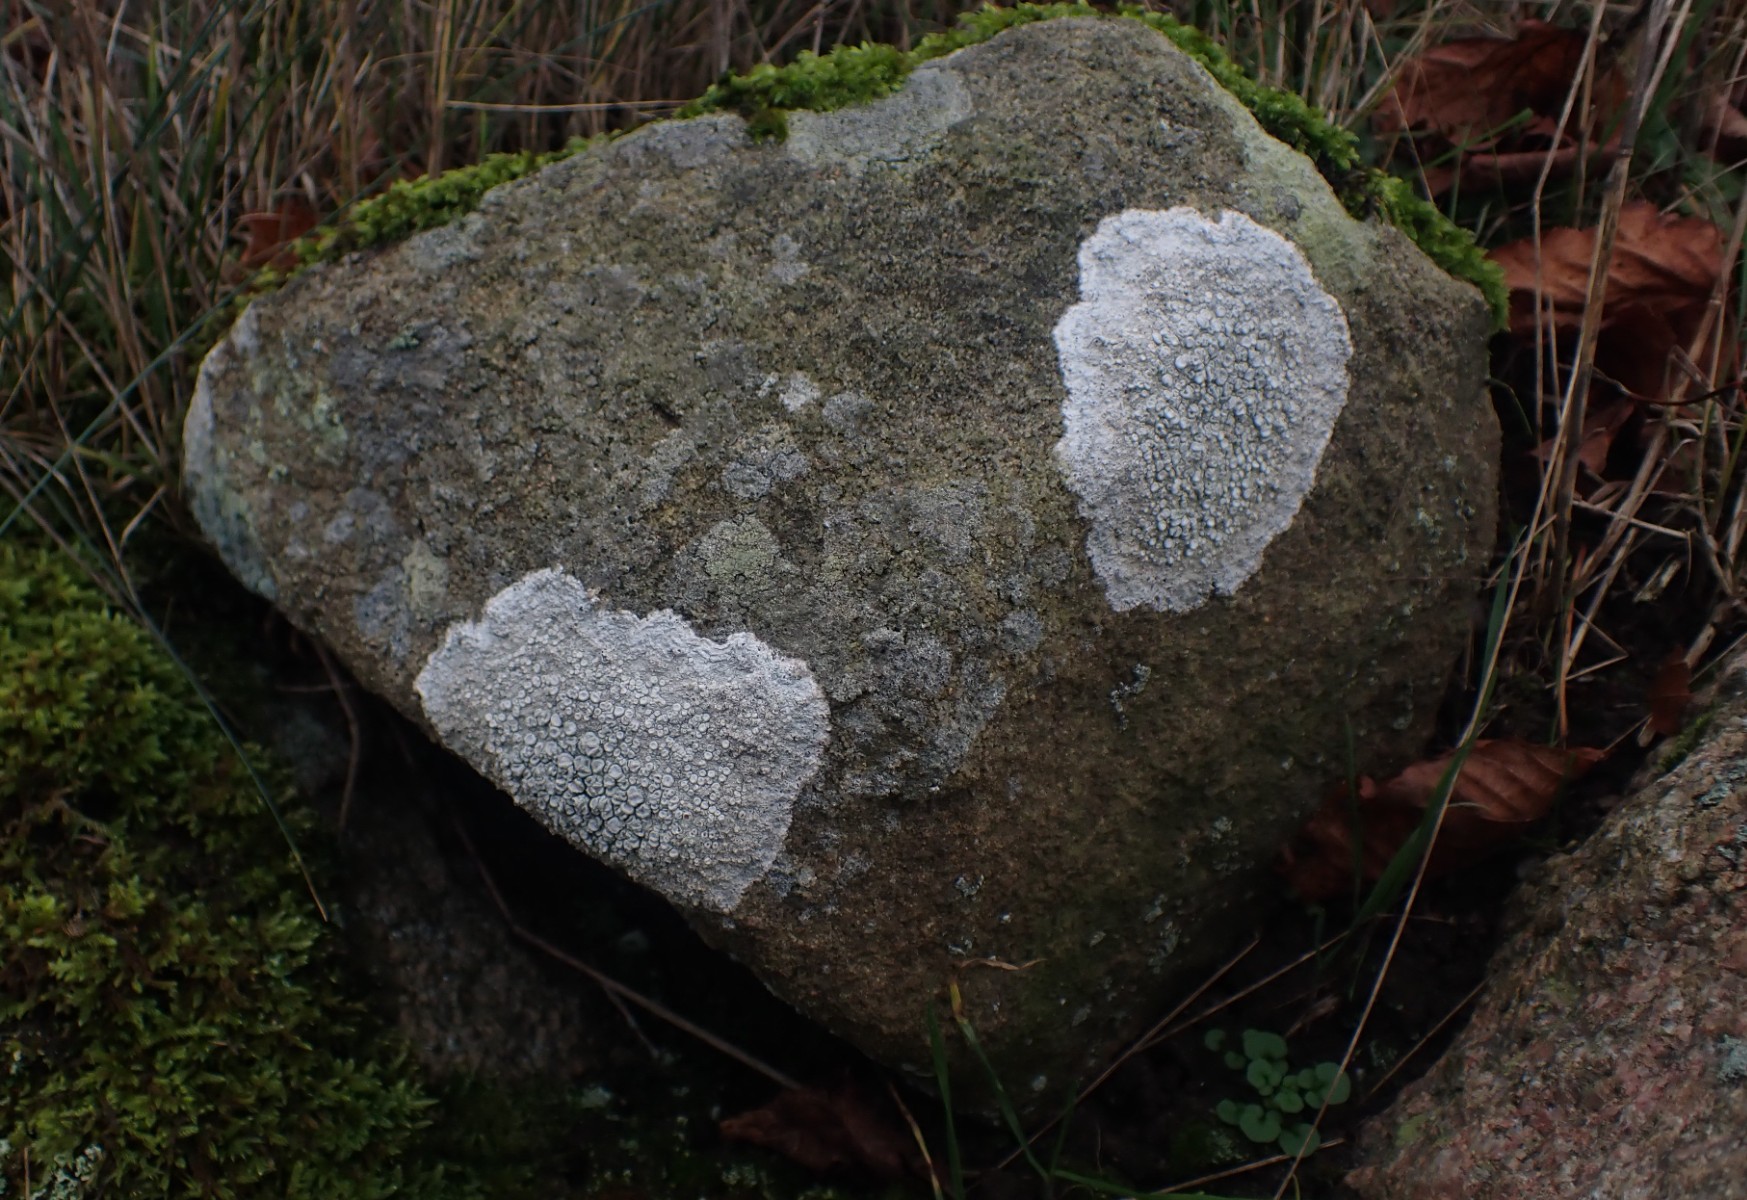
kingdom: Fungi
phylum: Ascomycota
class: Lecanoromycetes
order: Pertusariales
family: Ochrolechiaceae
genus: Ochrolechia
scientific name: Ochrolechia parella
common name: almindelig blegskivelav
